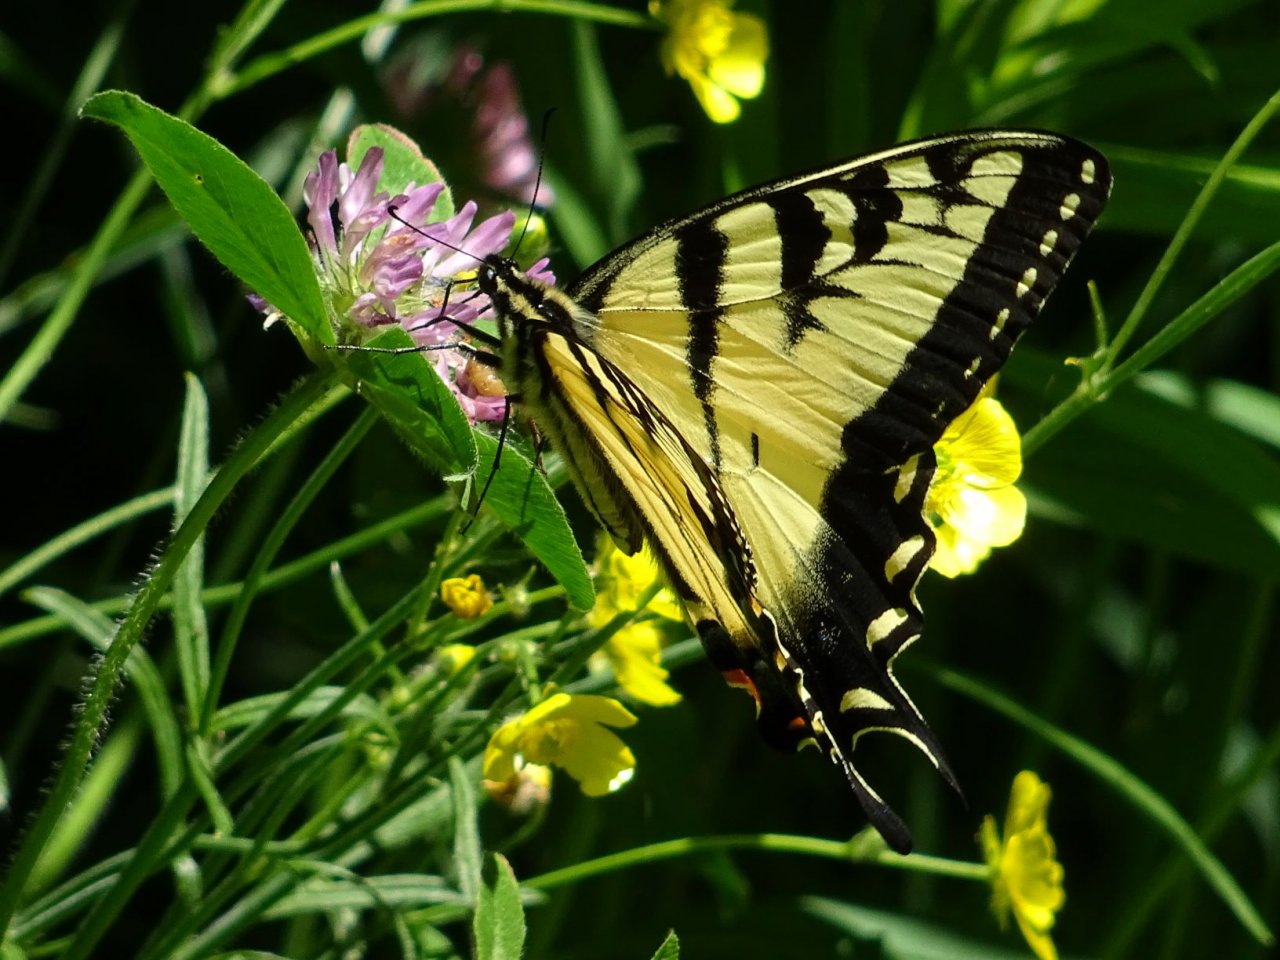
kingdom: Animalia
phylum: Arthropoda
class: Insecta
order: Lepidoptera
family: Papilionidae
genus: Pterourus
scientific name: Pterourus glaucus
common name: Eastern Tiger Swallowtail
